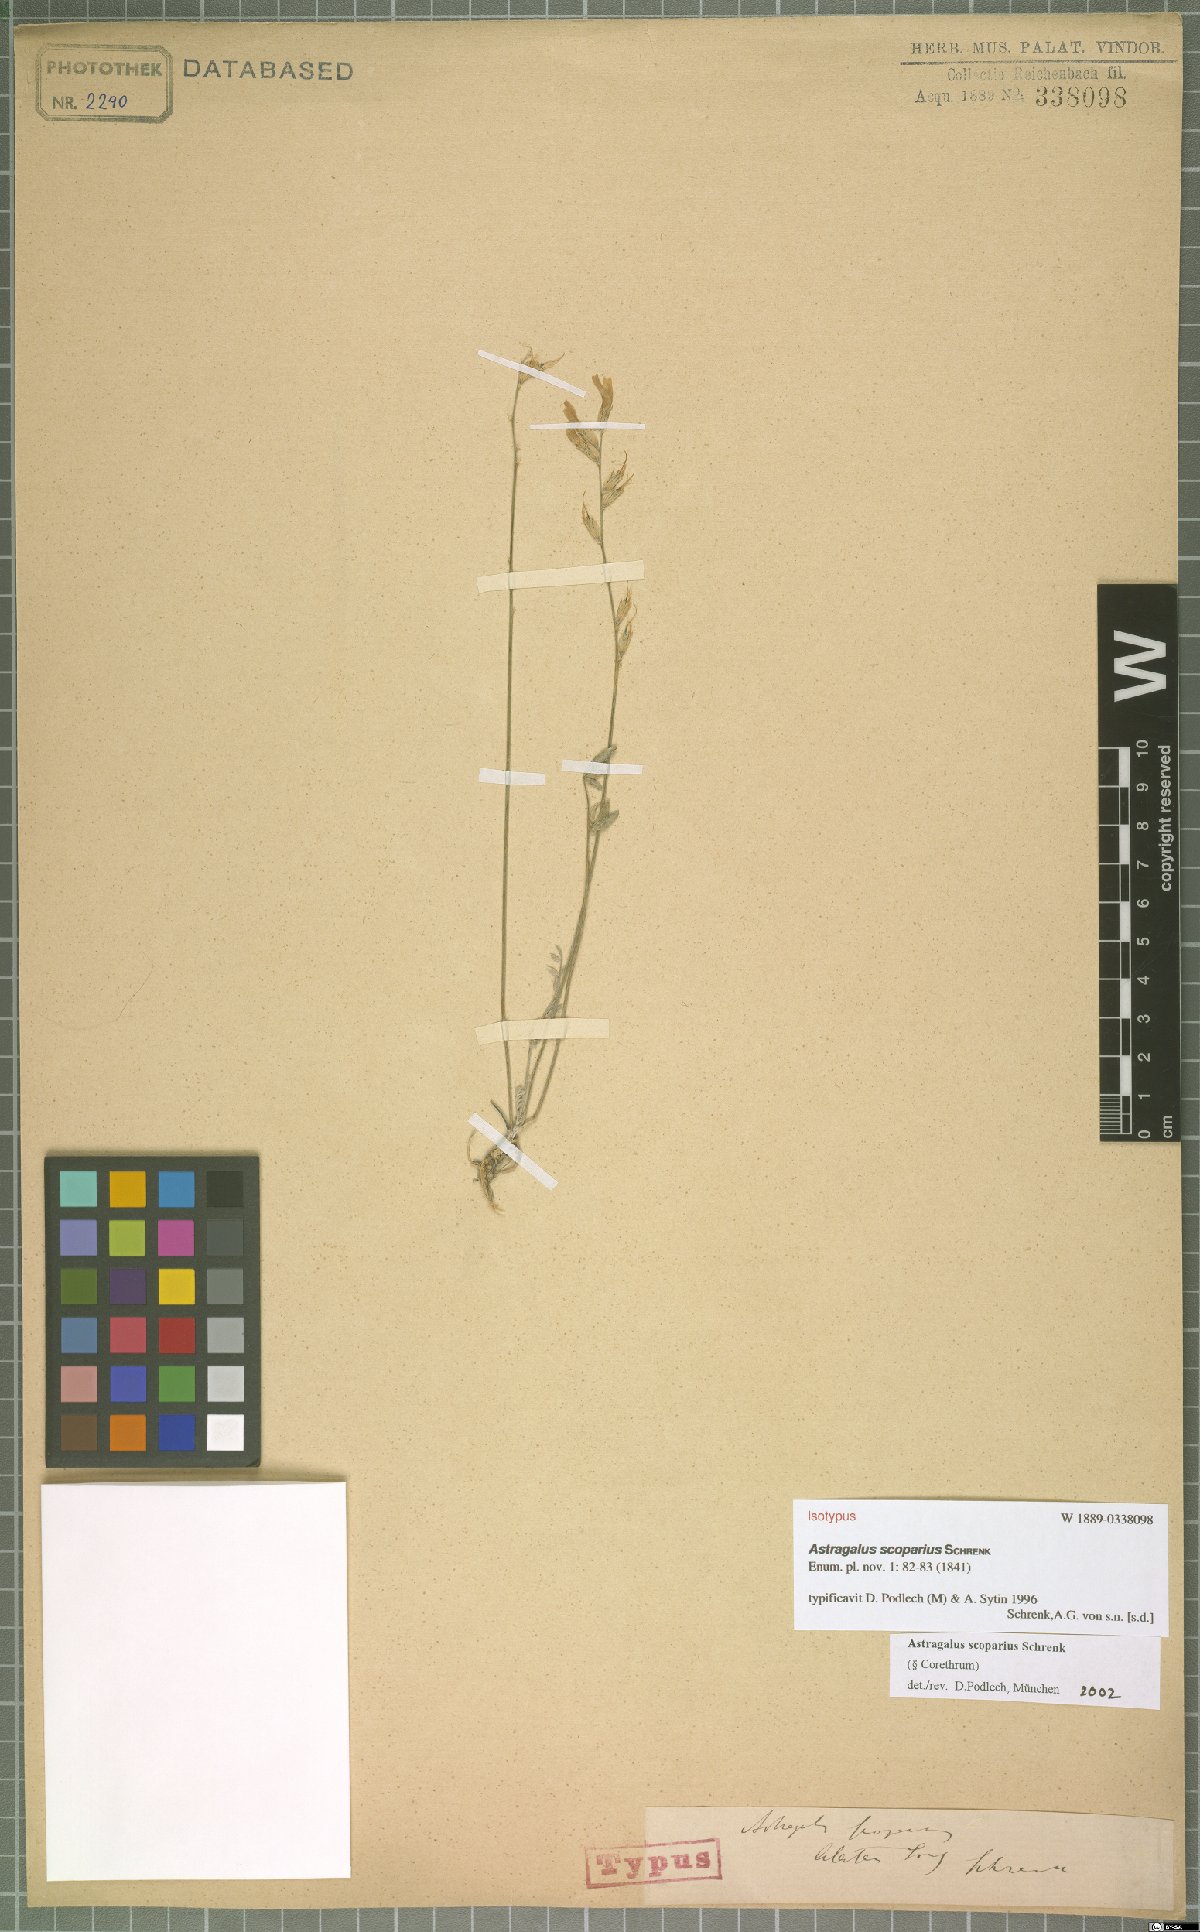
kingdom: Plantae
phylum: Tracheophyta
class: Magnoliopsida
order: Fabales
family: Fabaceae
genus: Astragalus
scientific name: Astragalus scoparius
